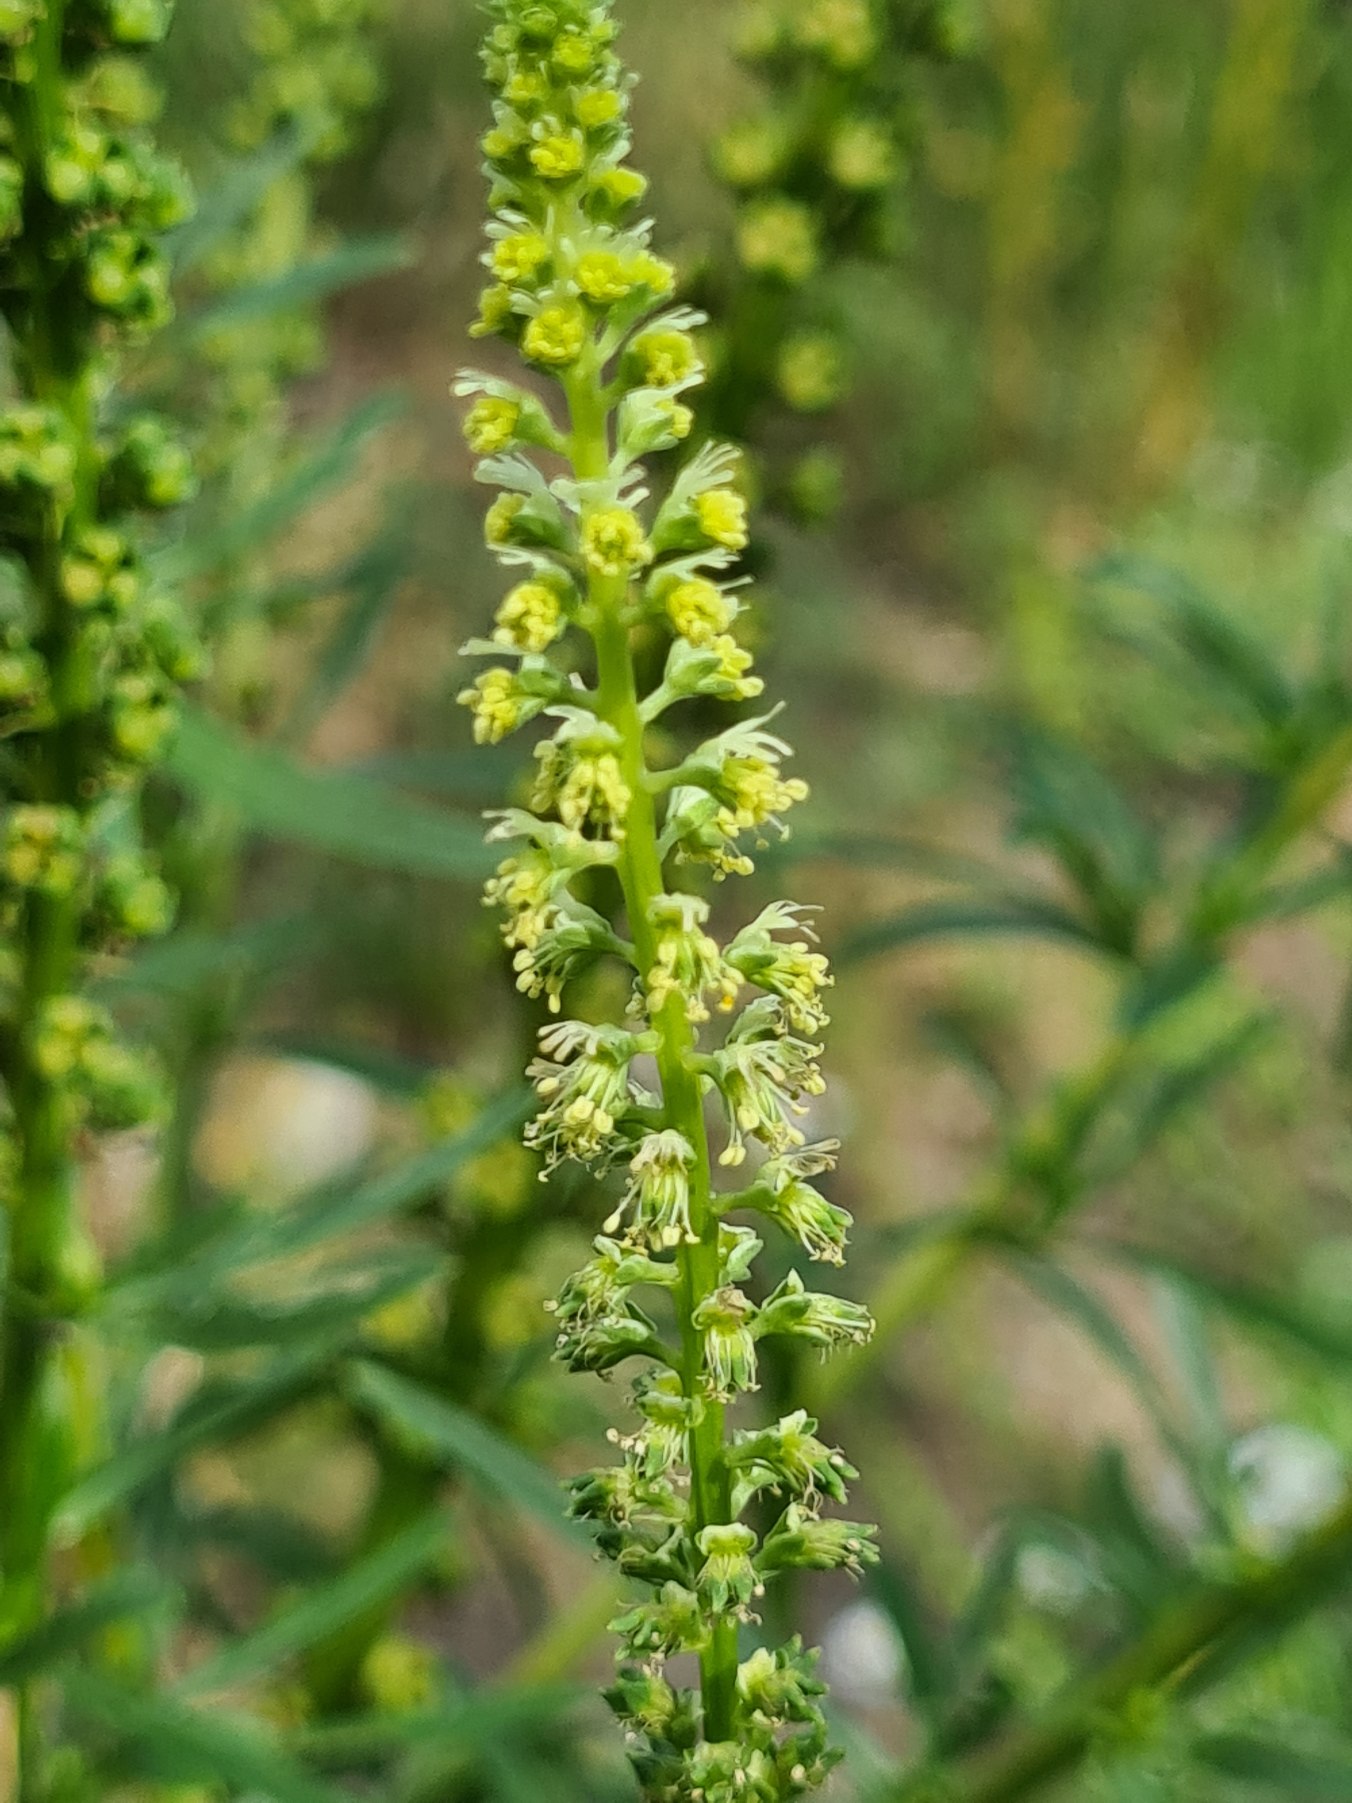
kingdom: Plantae
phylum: Tracheophyta
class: Magnoliopsida
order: Brassicales
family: Resedaceae
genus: Reseda
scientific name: Reseda luteola
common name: Farve-reseda
